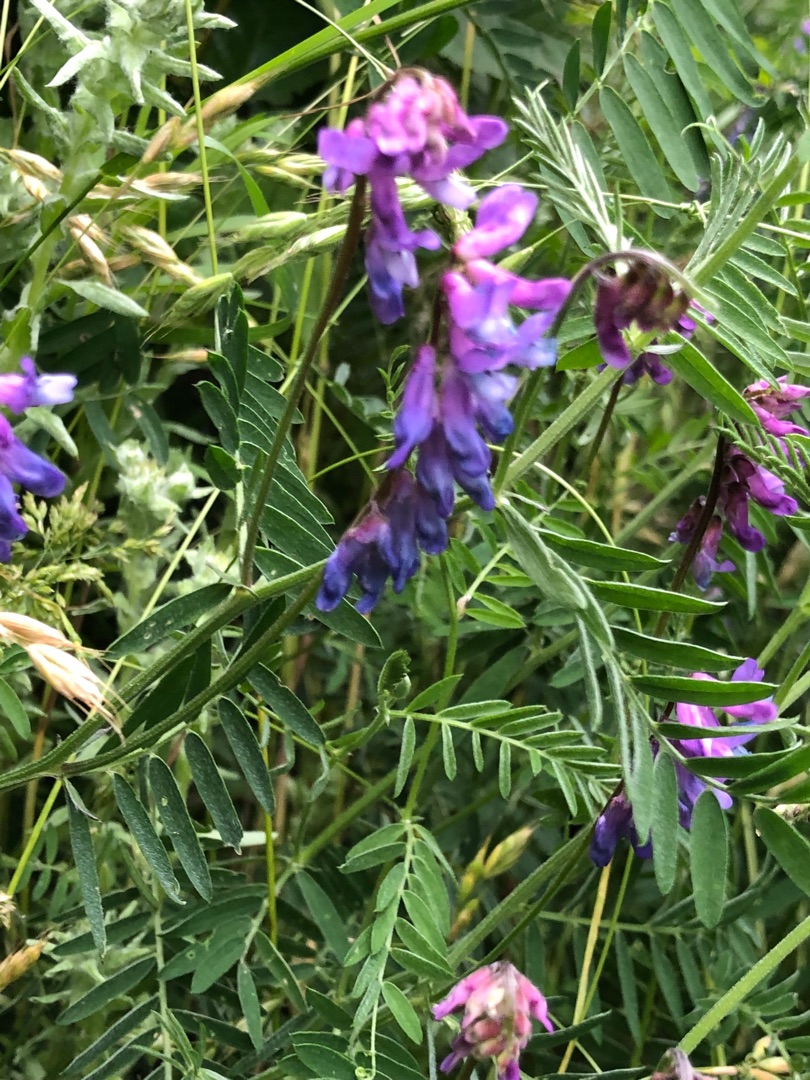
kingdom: Plantae
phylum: Tracheophyta
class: Magnoliopsida
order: Fabales
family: Fabaceae
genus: Vicia
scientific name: Vicia cracca
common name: Muse-vikke
